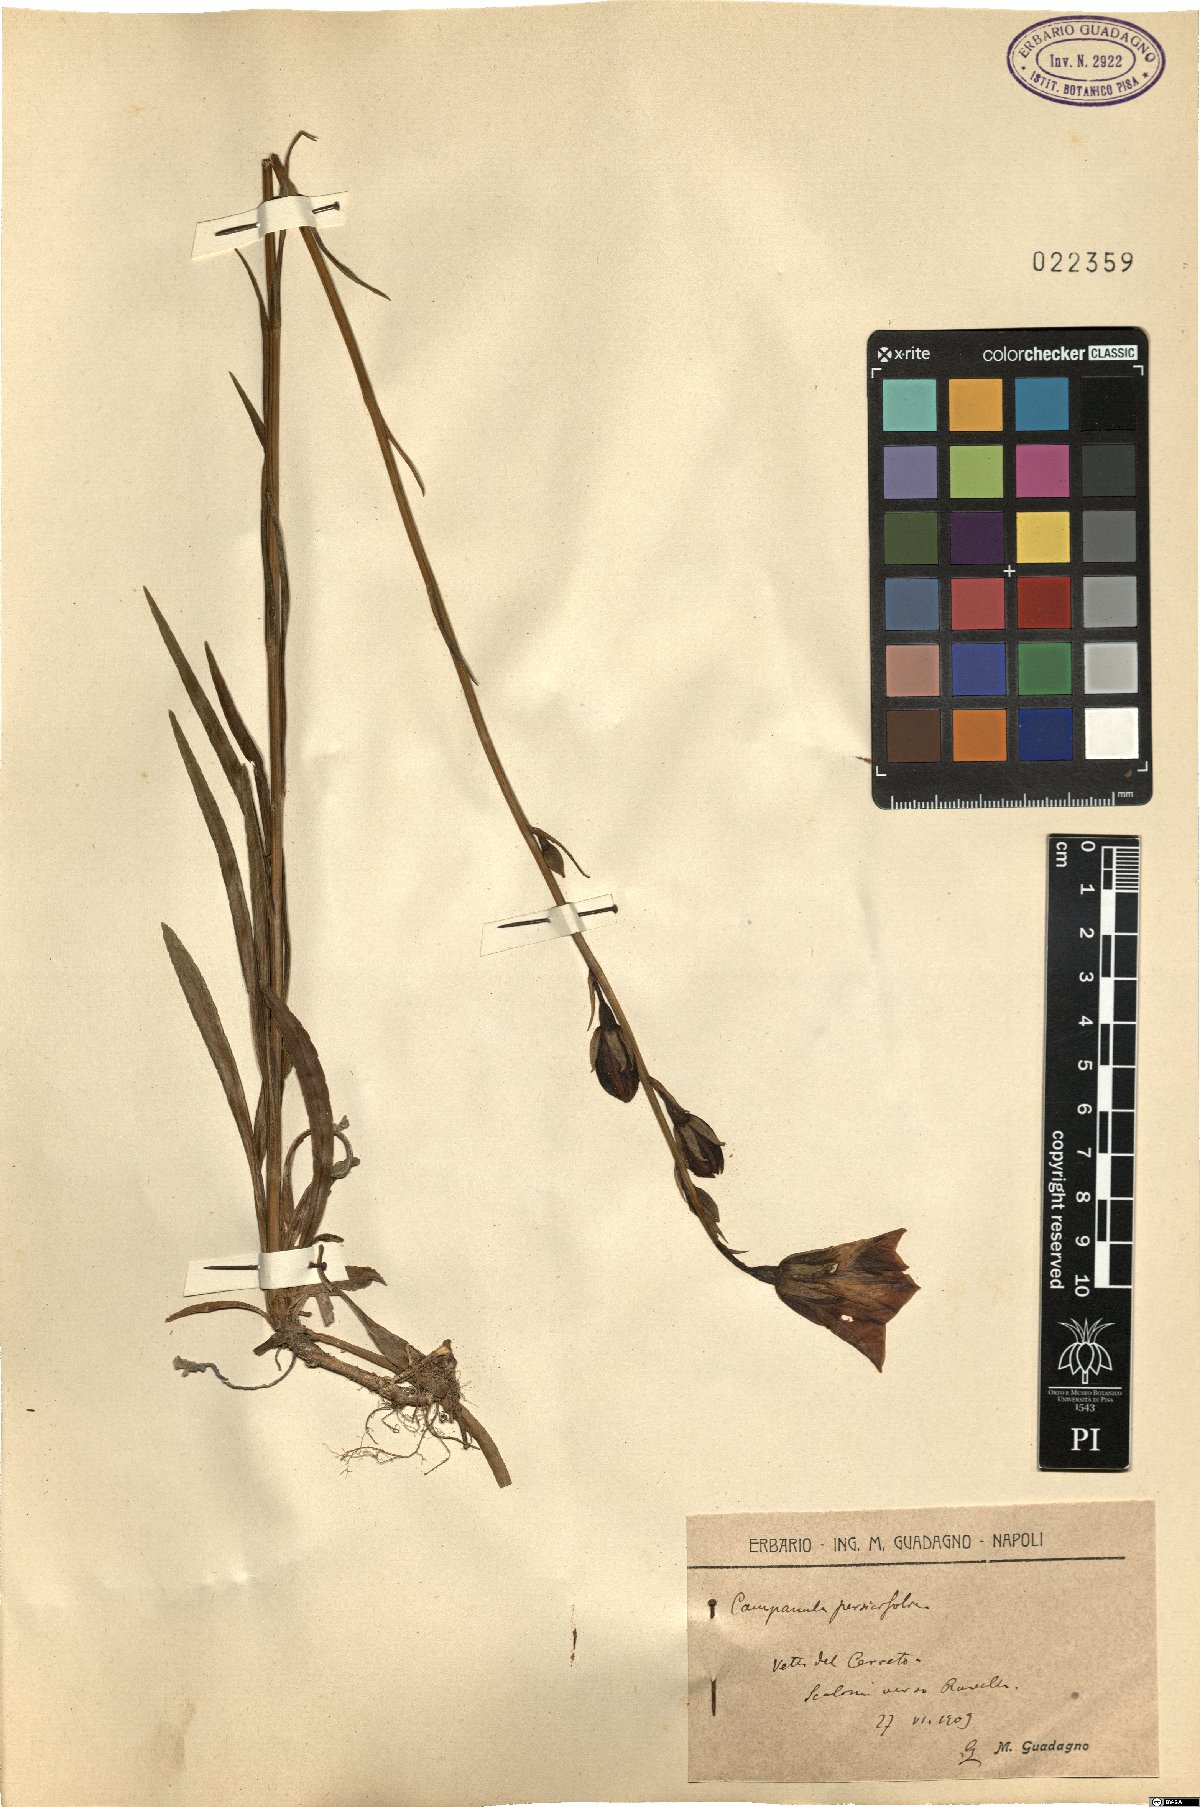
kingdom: Plantae
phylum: Tracheophyta
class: Magnoliopsida
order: Asterales
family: Campanulaceae
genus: Campanula
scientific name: Campanula persicifolia
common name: Peach-leaved bellflower
